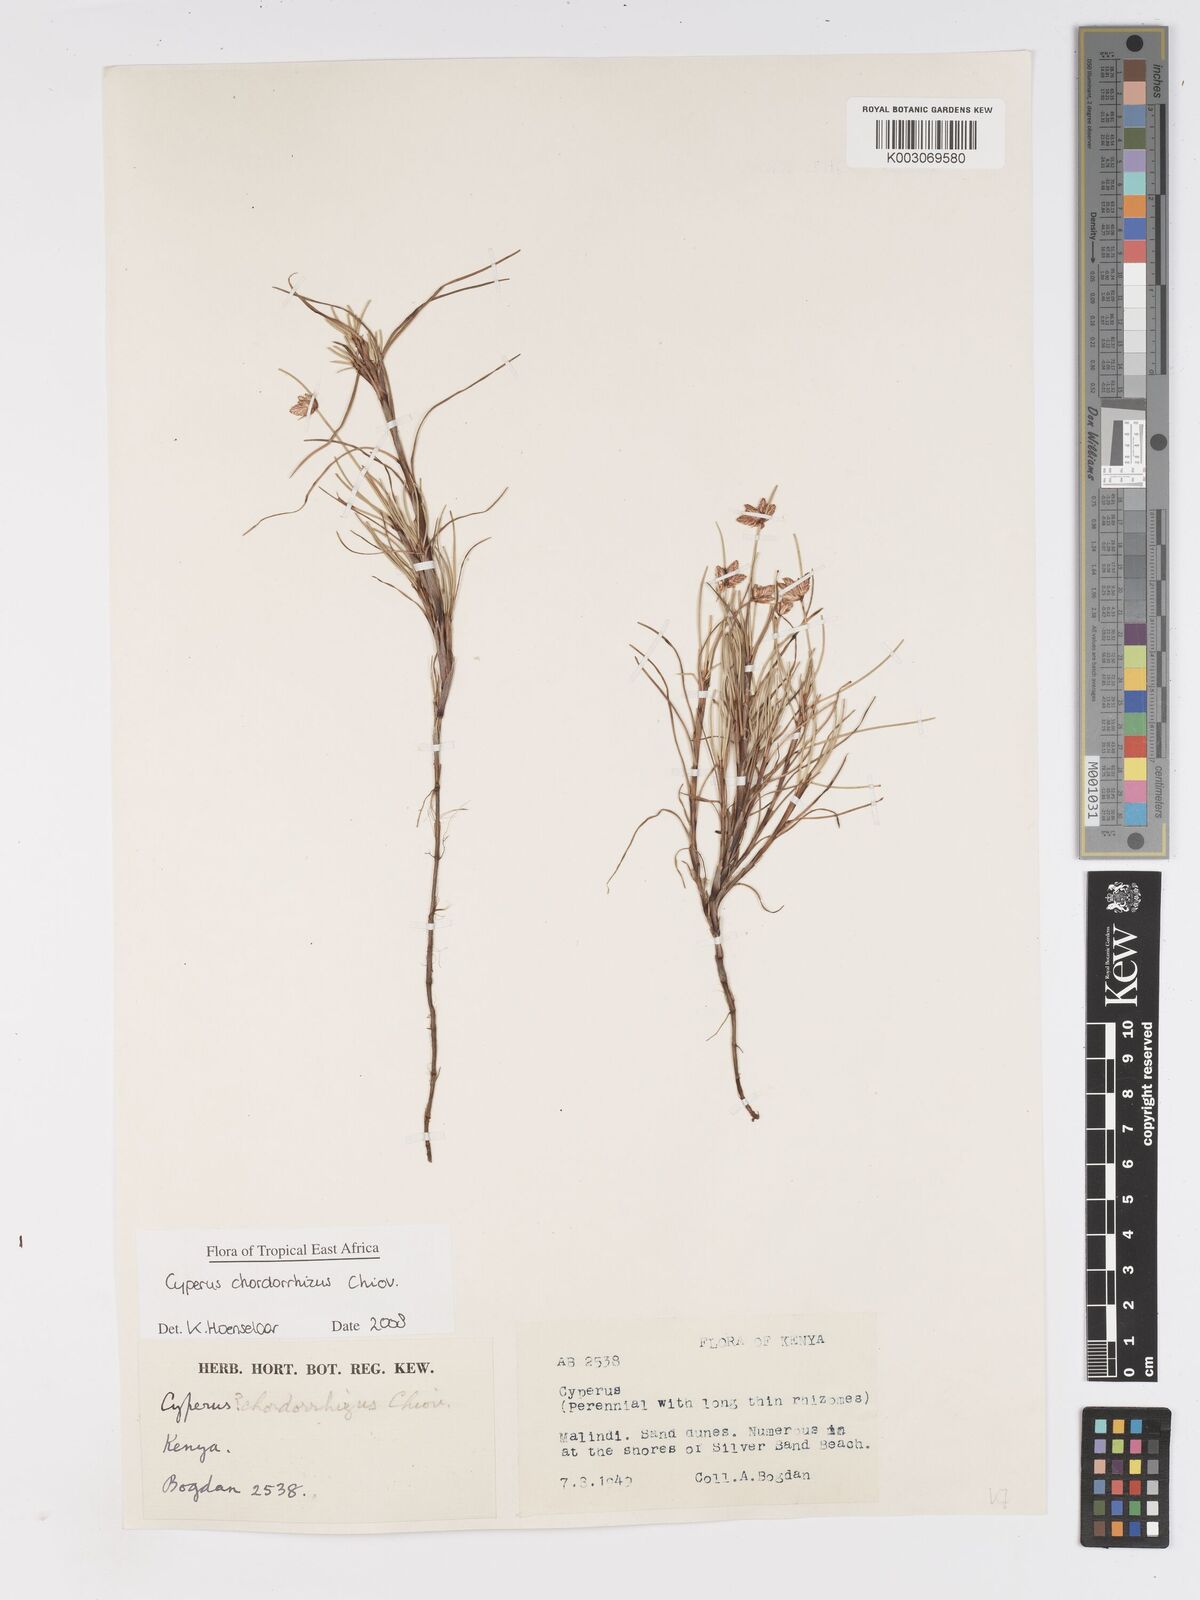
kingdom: Plantae
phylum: Tracheophyta
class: Liliopsida
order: Poales
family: Cyperaceae
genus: Cyperus
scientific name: Cyperus chordorrhizus
